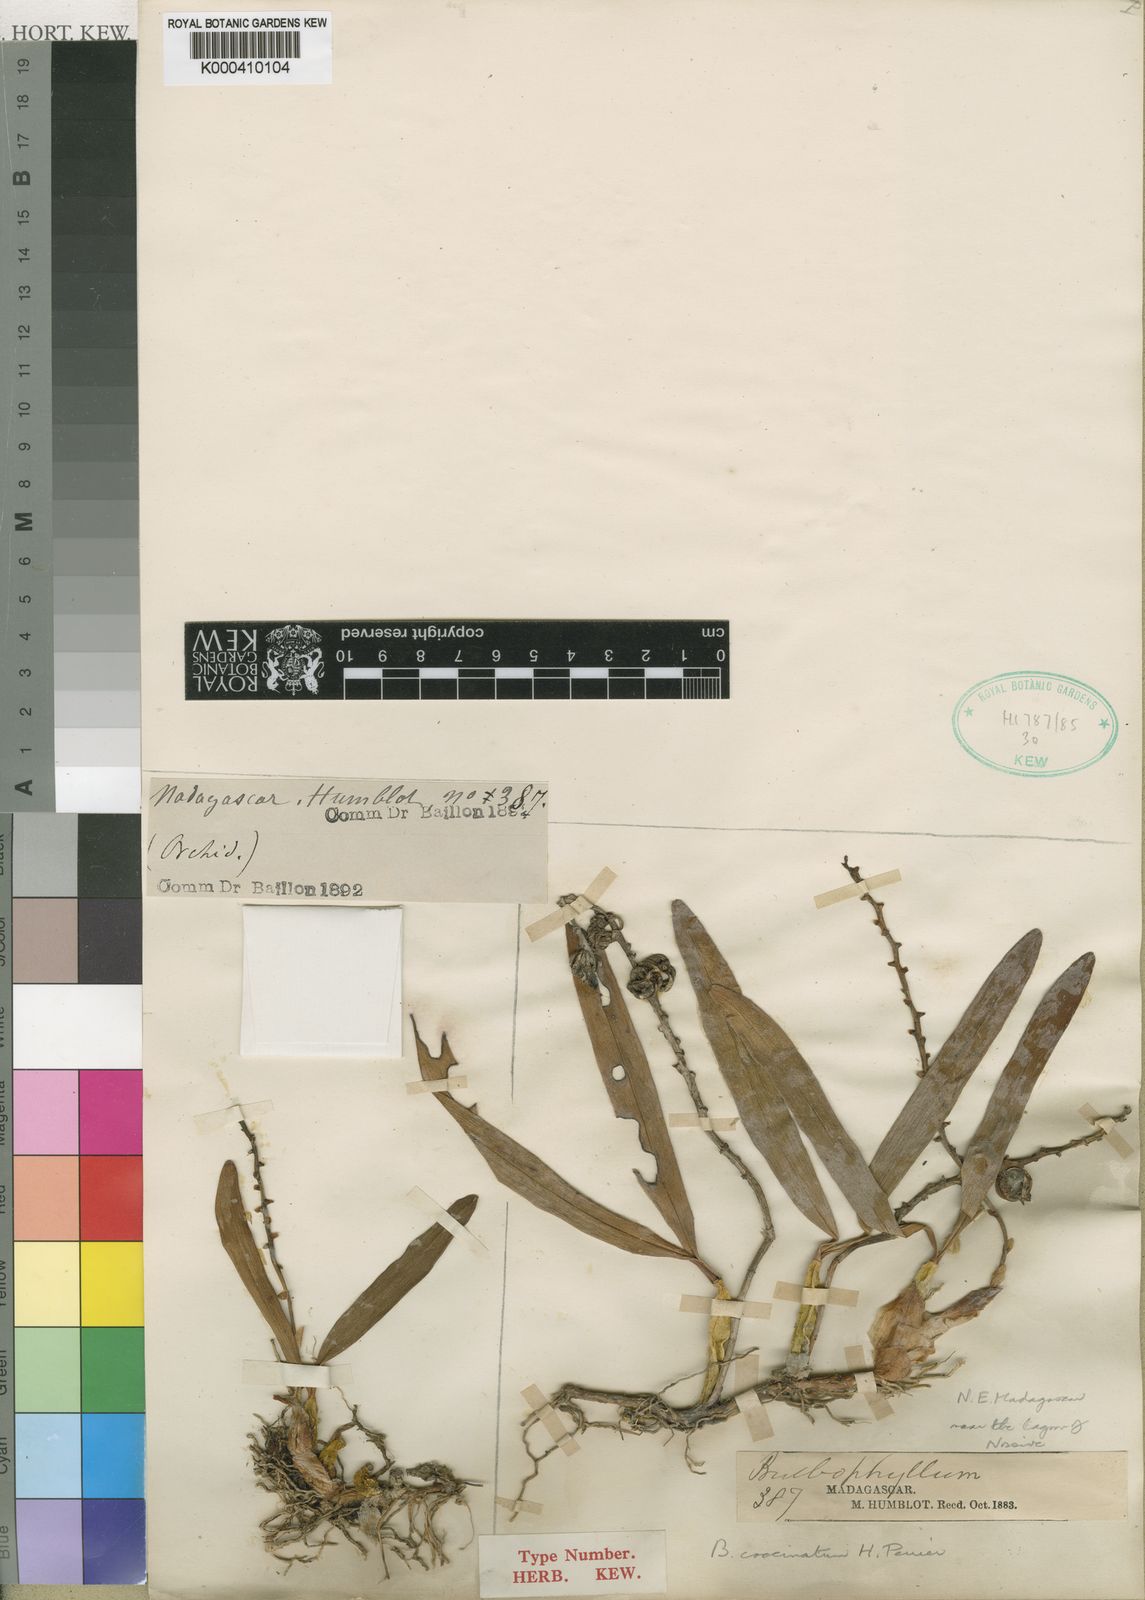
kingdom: Plantae
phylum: Tracheophyta
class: Liliopsida
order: Asparagales
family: Orchidaceae
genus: Bulbophyllum
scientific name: Bulbophyllum coccinatum
